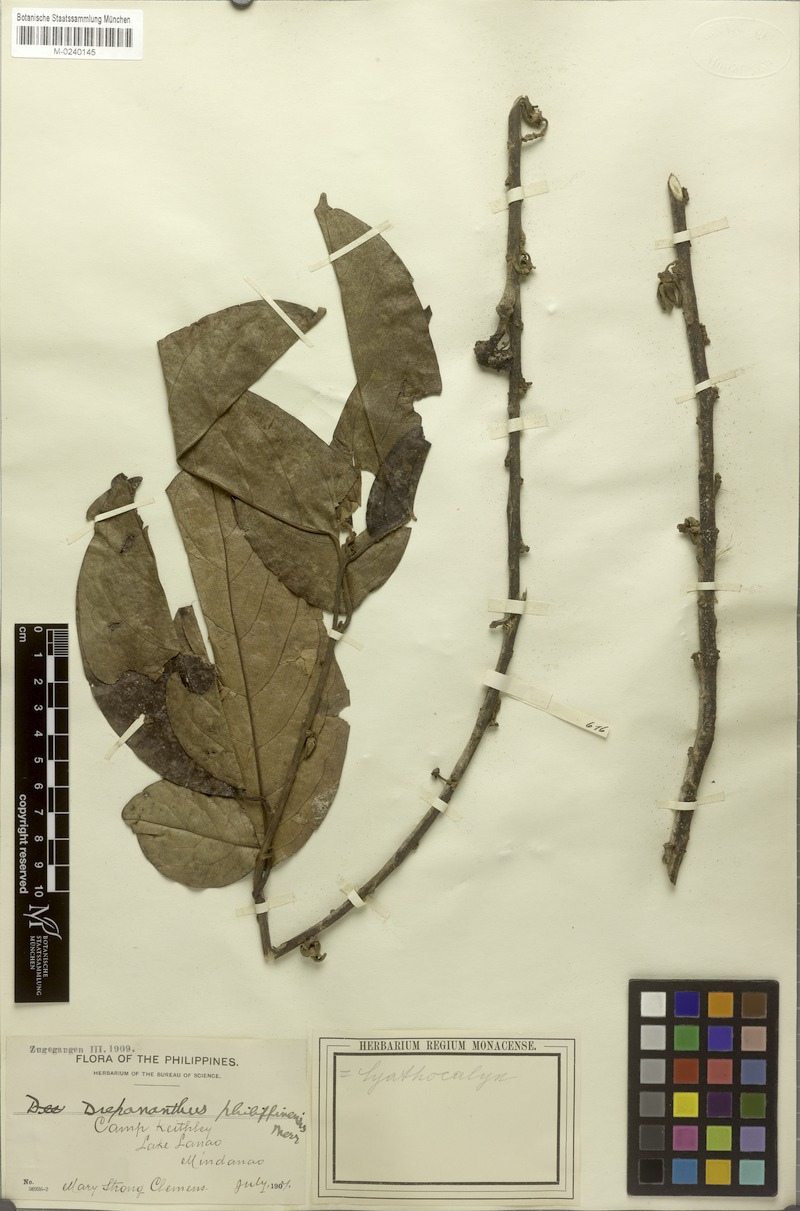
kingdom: Plantae
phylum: Tracheophyta
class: Magnoliopsida
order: Magnoliales
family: Annonaceae
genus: Drepananthus
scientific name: Drepananthus acuminatus
